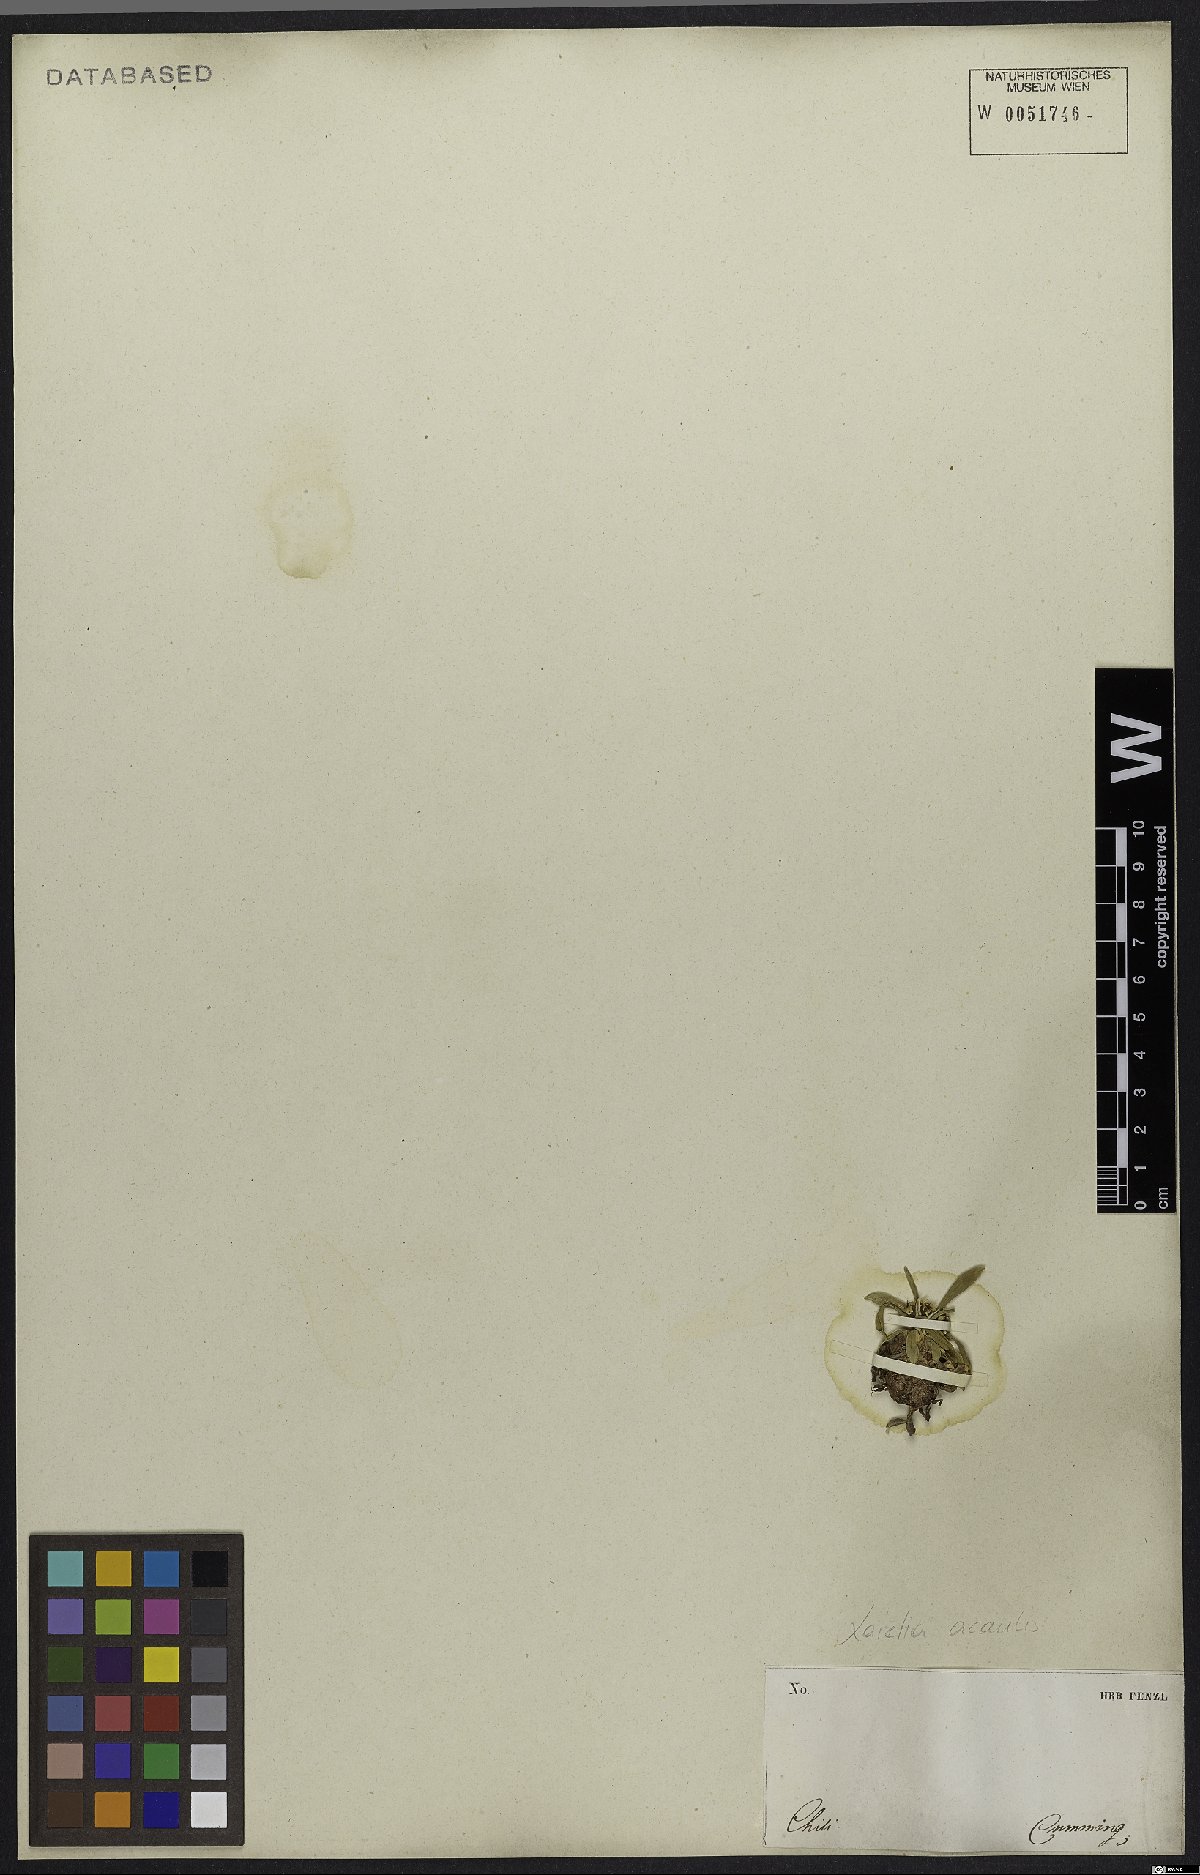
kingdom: Plantae
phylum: Tracheophyta
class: Magnoliopsida
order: Apiales
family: Apiaceae
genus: Azorella
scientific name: Azorella ruizii
